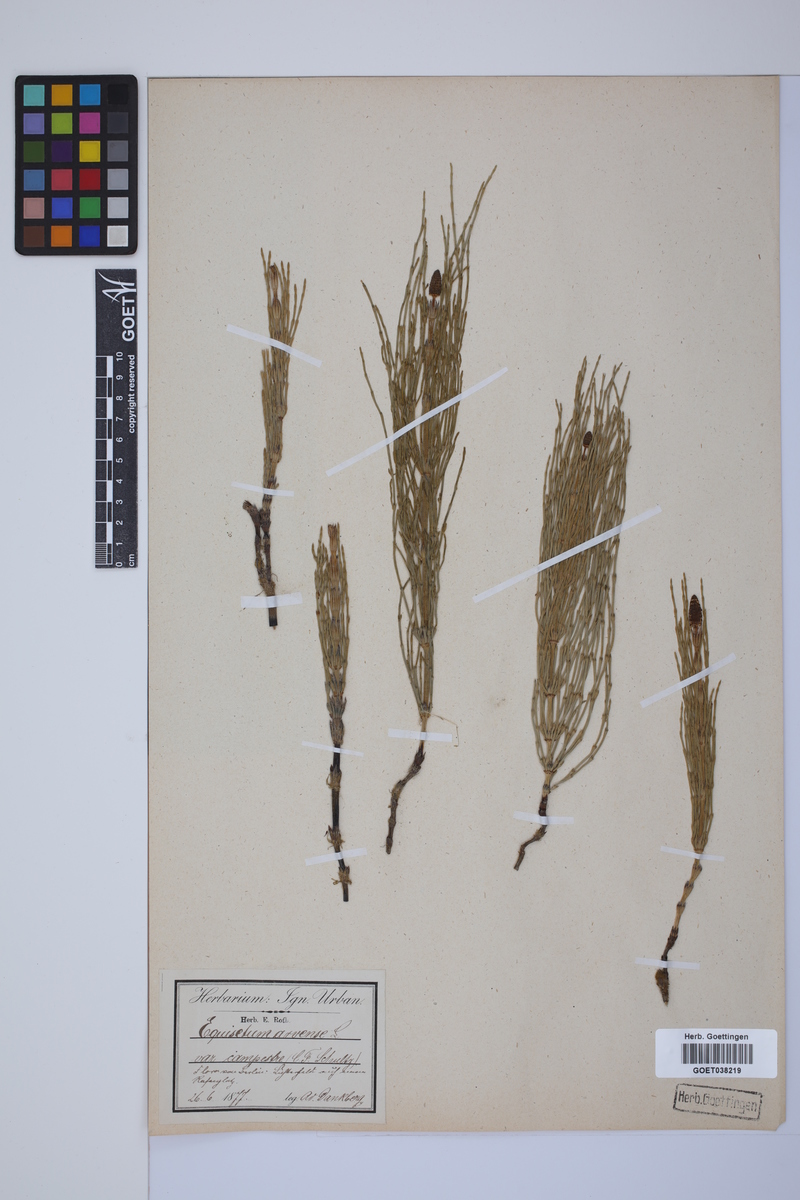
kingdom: Plantae
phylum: Tracheophyta
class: Polypodiopsida
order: Equisetales
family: Equisetaceae
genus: Equisetum
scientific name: Equisetum arvense
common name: Field horsetail
